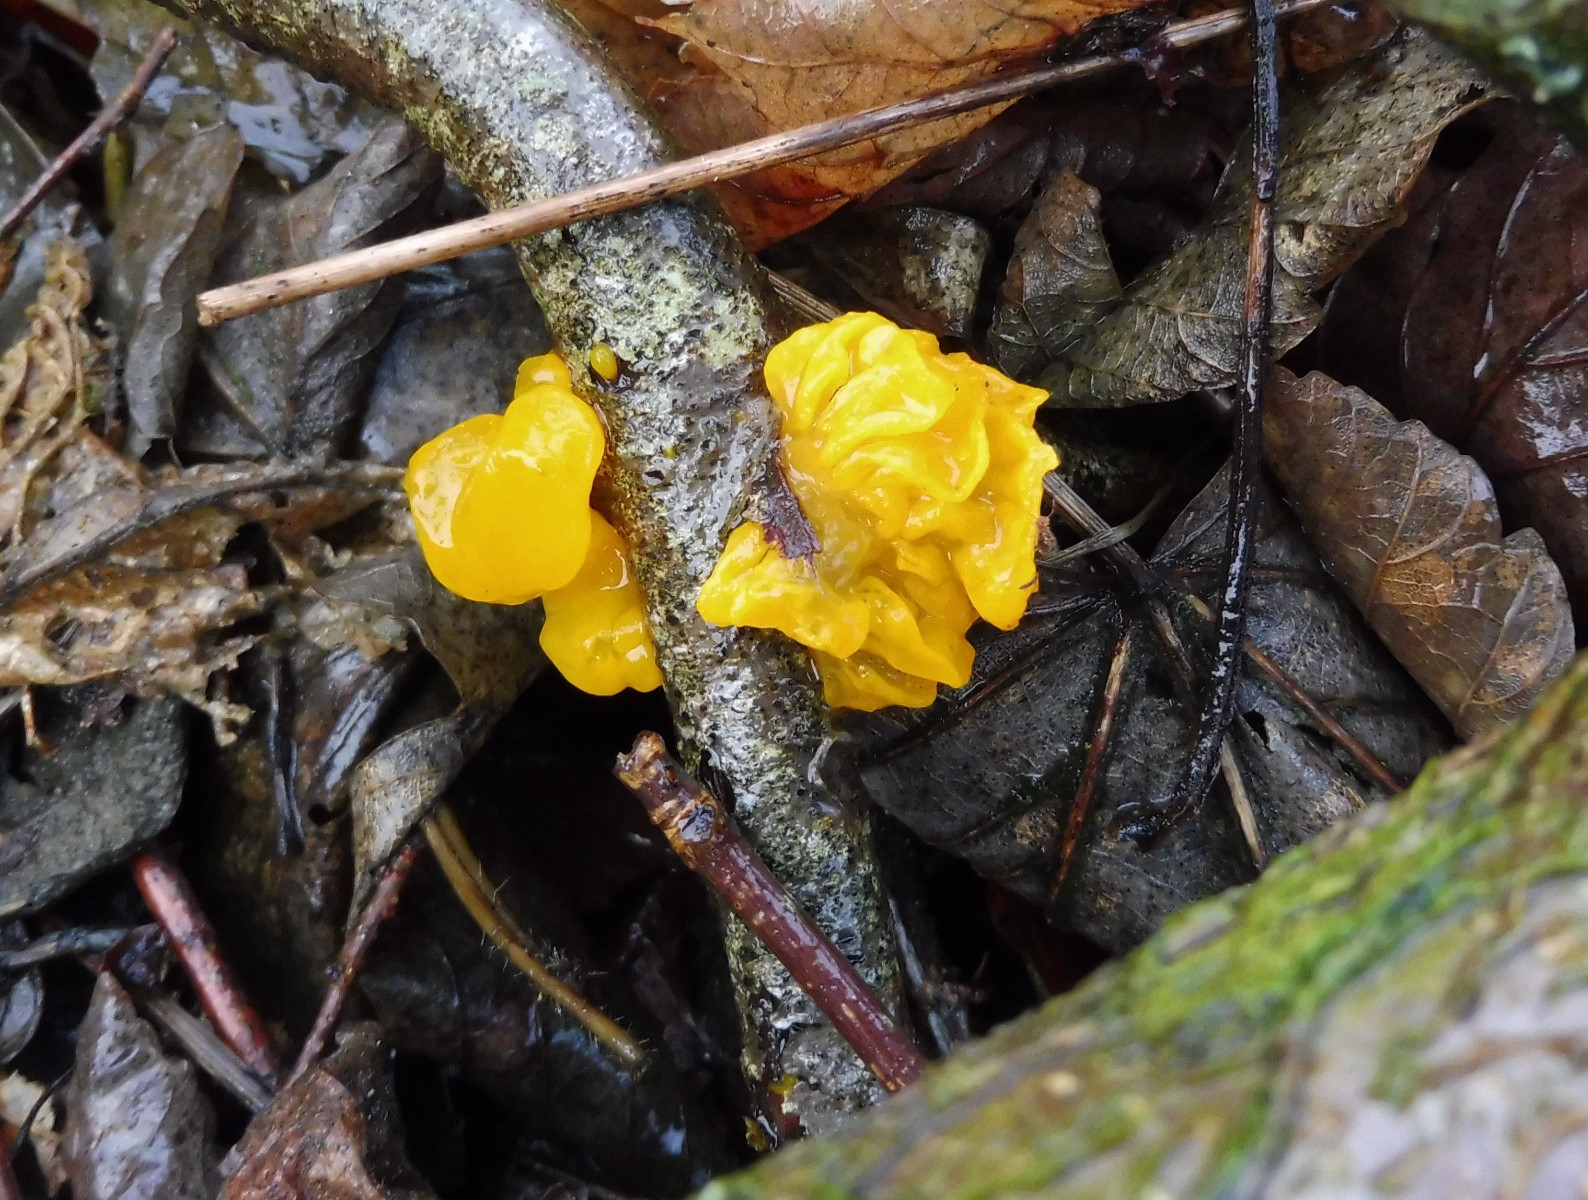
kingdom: Fungi
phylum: Basidiomycota
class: Tremellomycetes
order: Tremellales
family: Tremellaceae
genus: Tremella
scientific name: Tremella mesenterica
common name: gul bævresvamp
